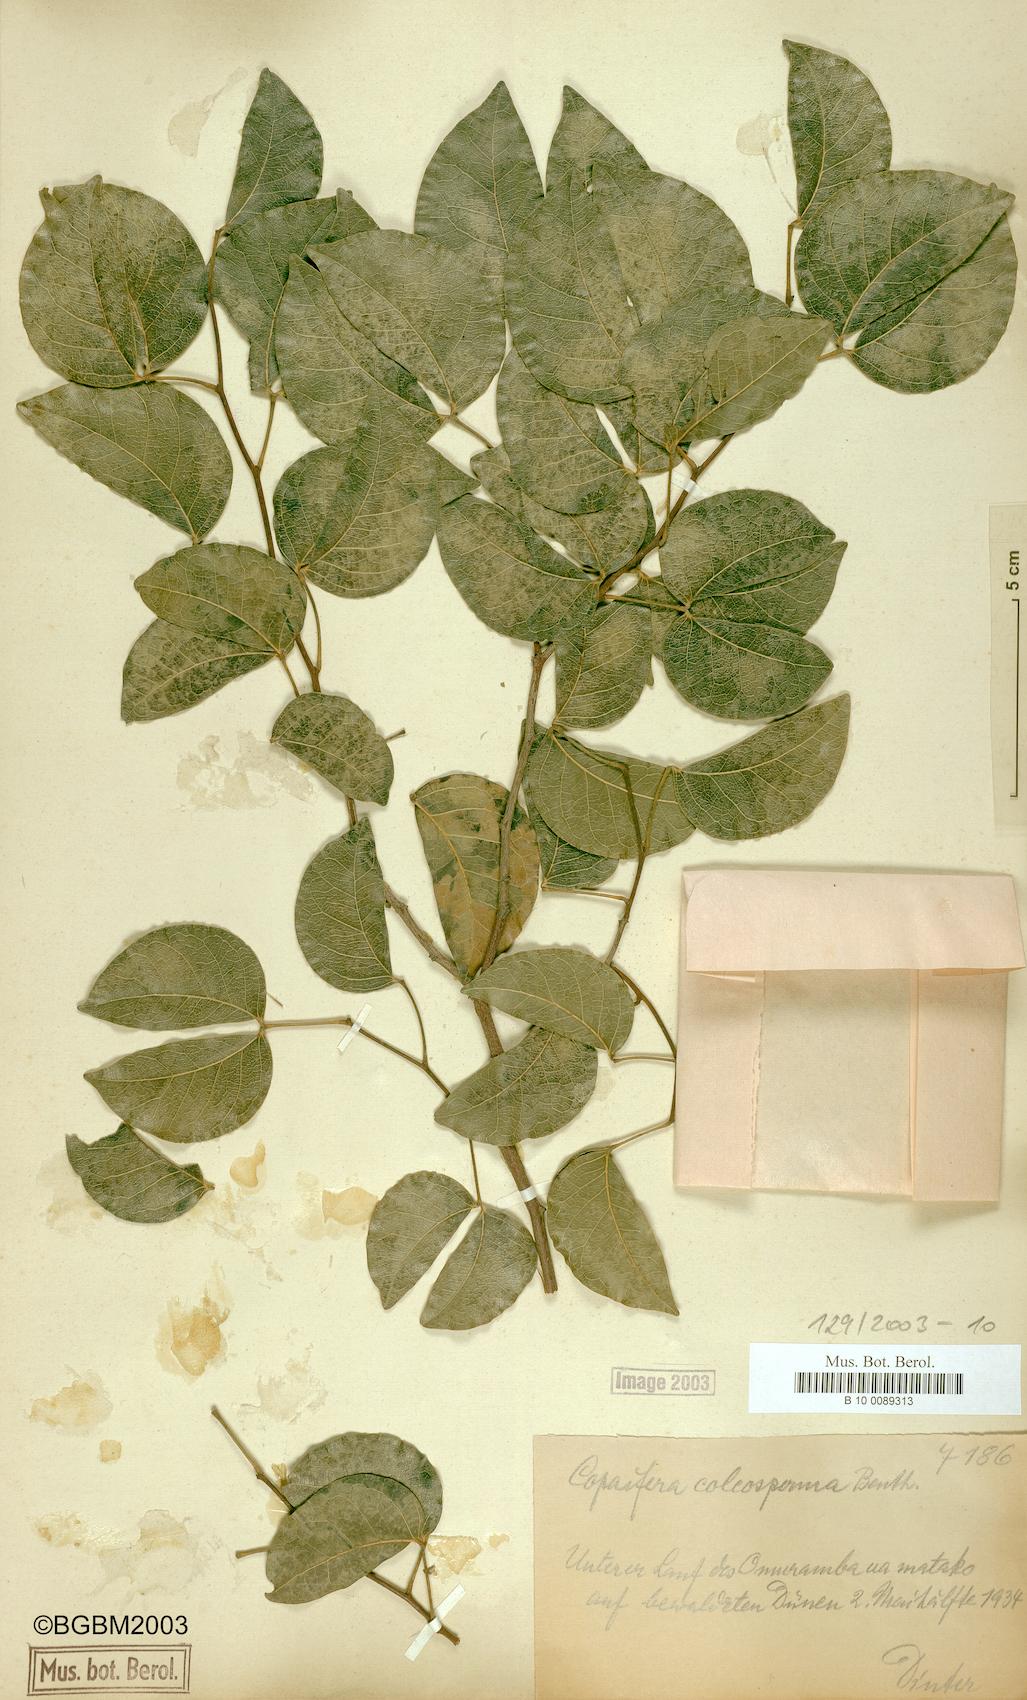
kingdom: Plantae
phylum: Tracheophyta
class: Magnoliopsida
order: Fabales
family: Fabaceae
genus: Guibourtia
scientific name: Guibourtia coleosperma
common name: African rosewoood
